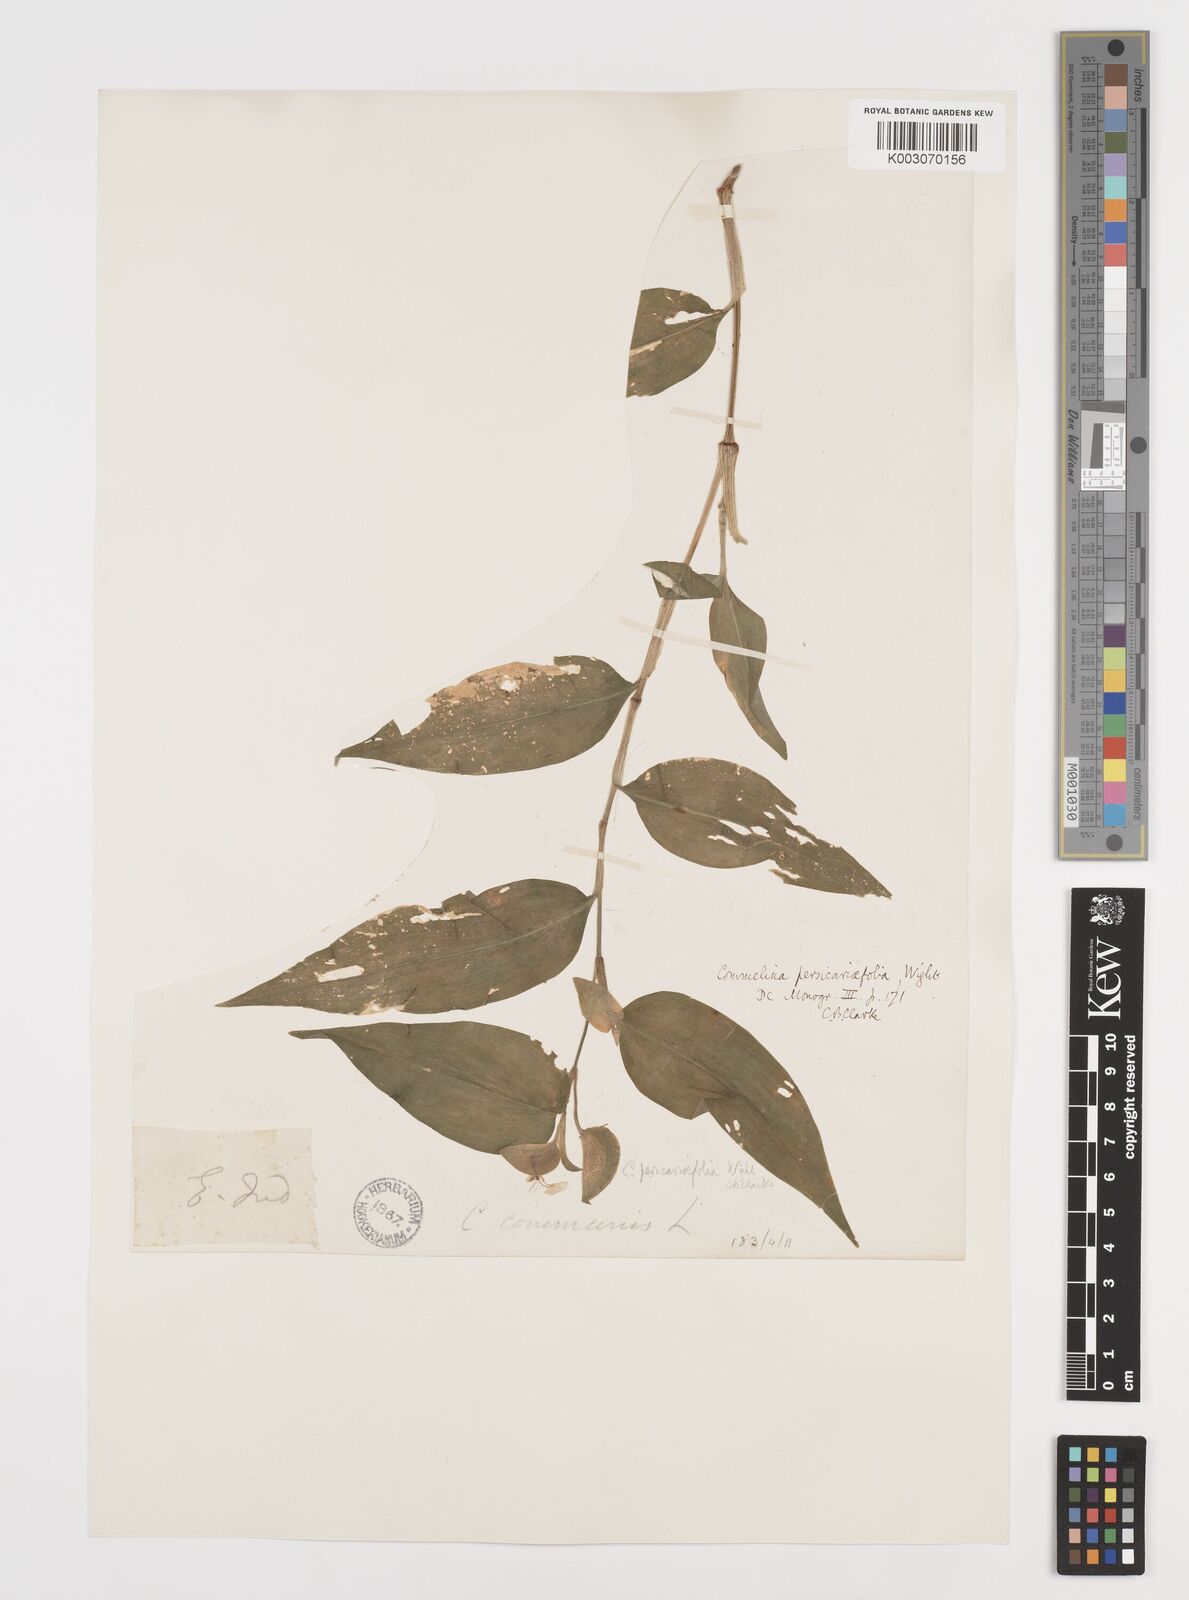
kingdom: Plantae
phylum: Tracheophyta
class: Liliopsida
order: Commelinales
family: Commelinaceae
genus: Commelina
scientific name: Commelina petersii
